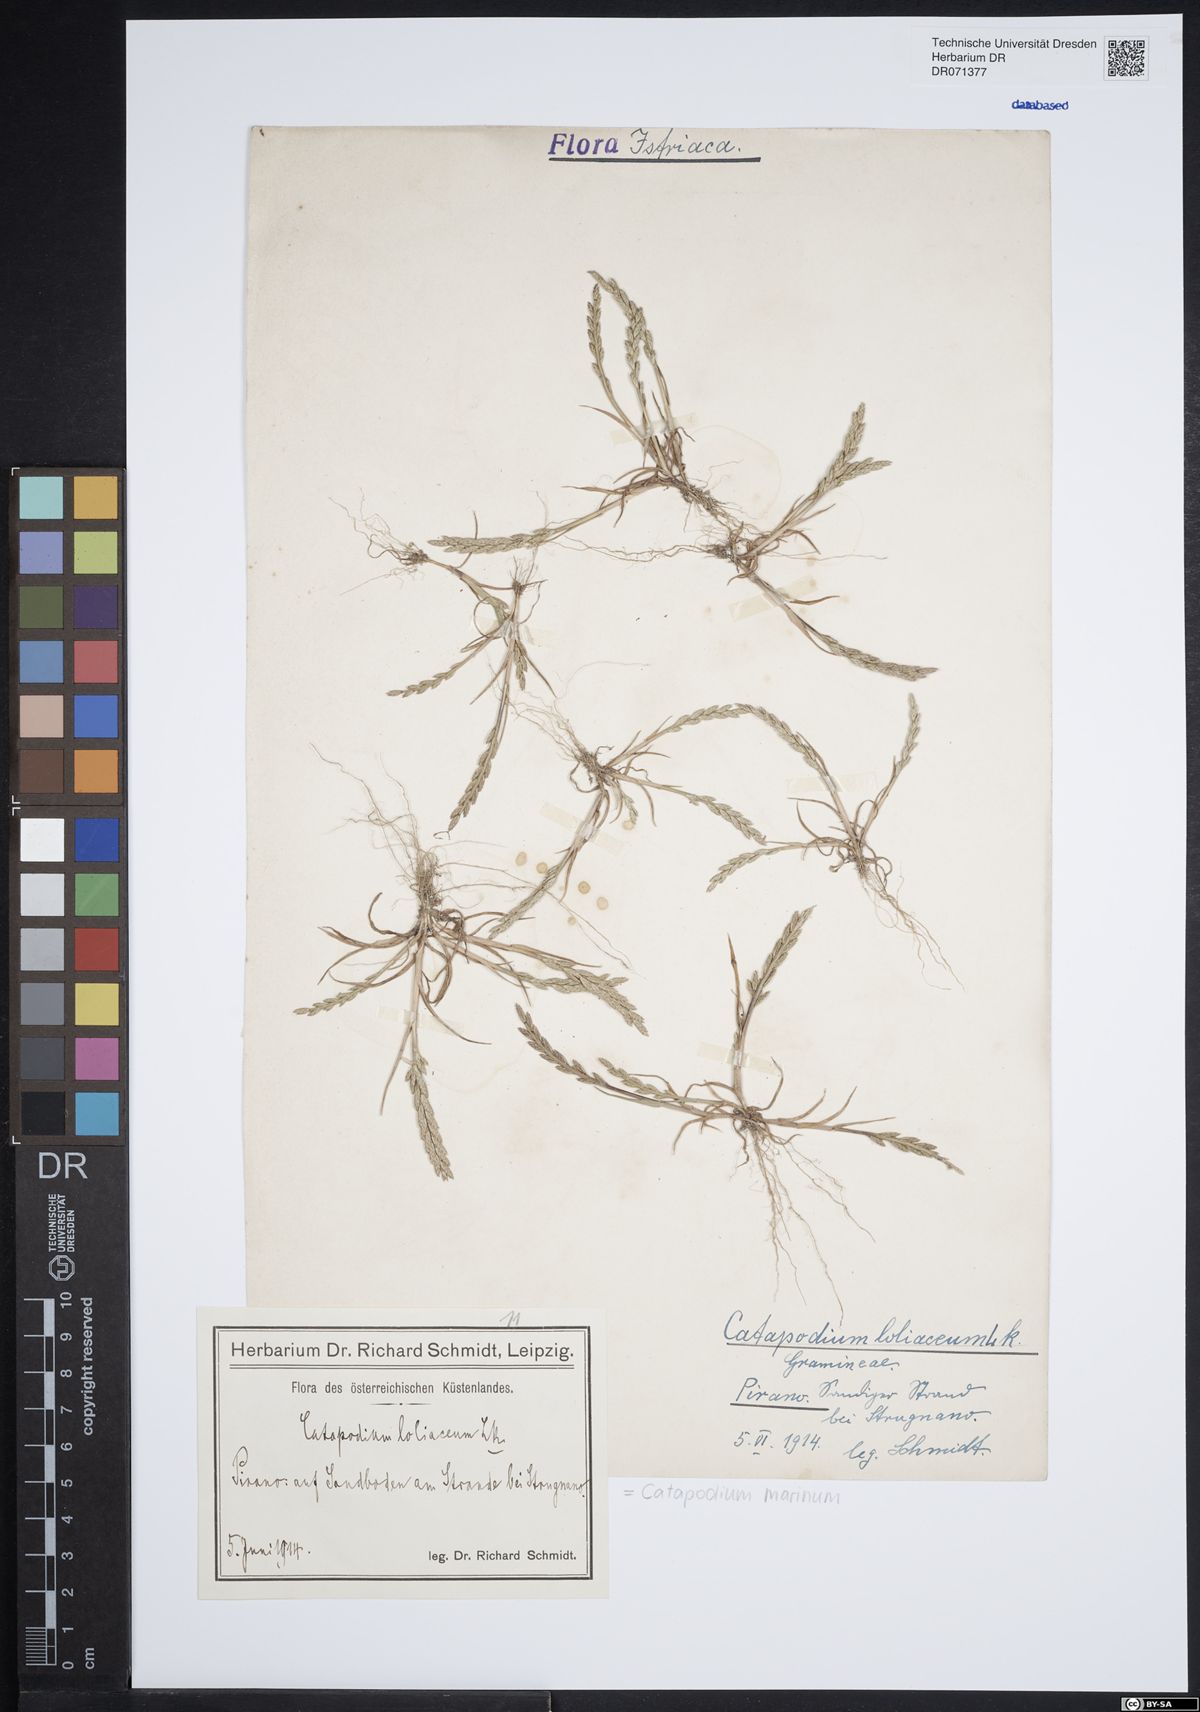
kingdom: Plantae
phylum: Tracheophyta
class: Liliopsida
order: Poales
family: Poaceae
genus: Catapodium
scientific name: Catapodium marinum
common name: Sea fern-grass
